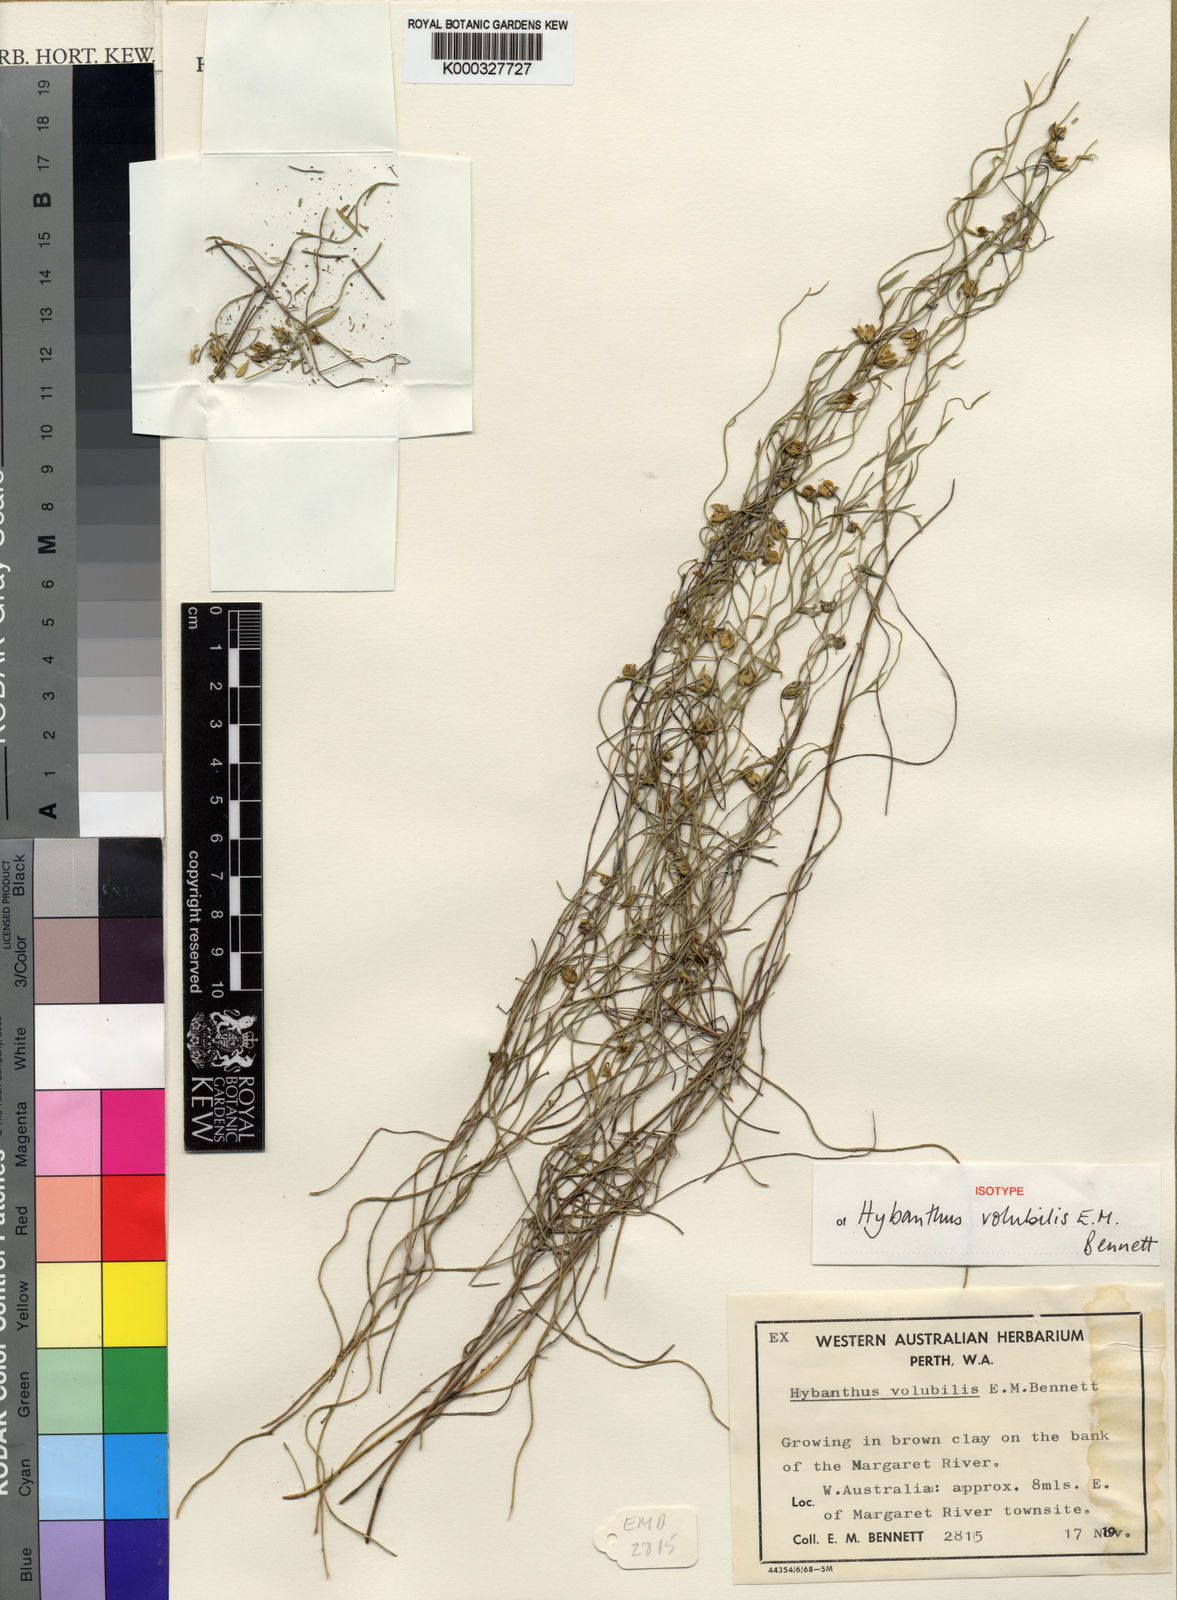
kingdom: Plantae
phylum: Tracheophyta
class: Magnoliopsida
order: Malpighiales
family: Violaceae
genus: Pigea
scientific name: Pigea volubilis
